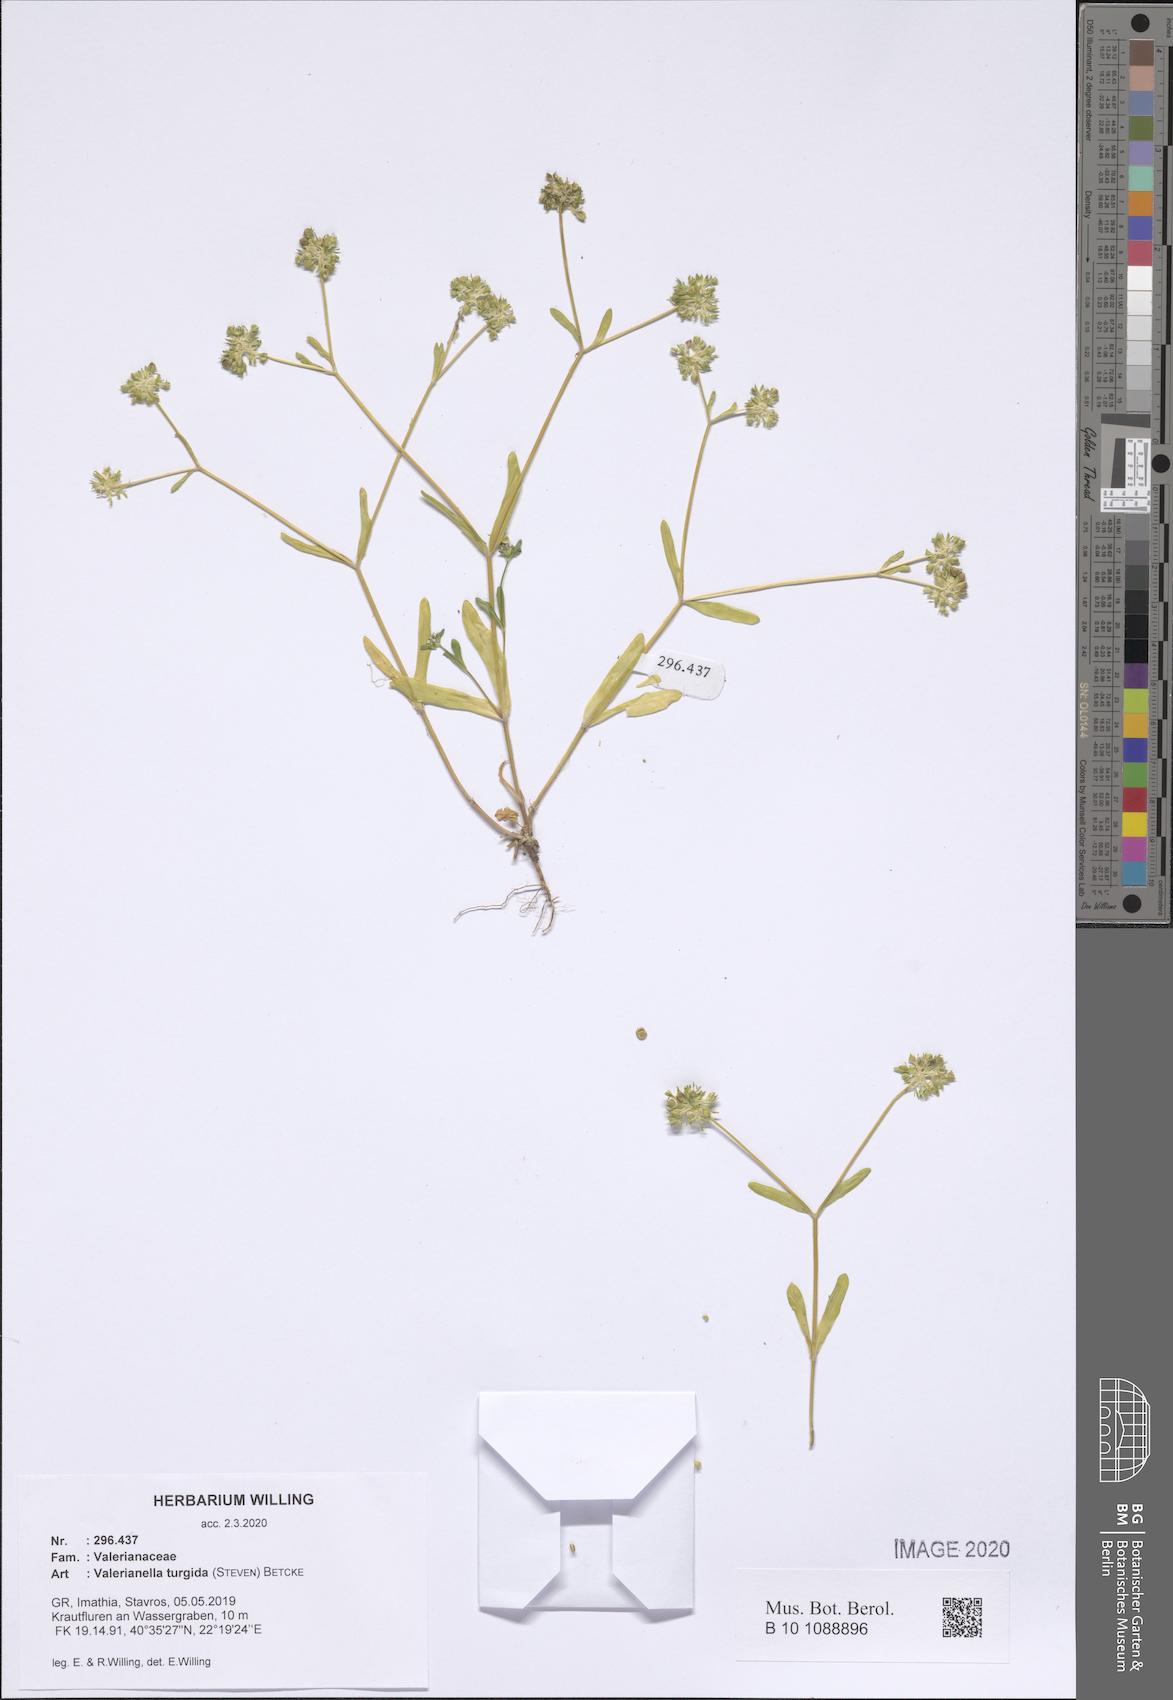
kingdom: Plantae
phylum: Tracheophyta
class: Magnoliopsida
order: Dipsacales
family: Caprifoliaceae
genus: Valerianella
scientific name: Valerianella turgida
